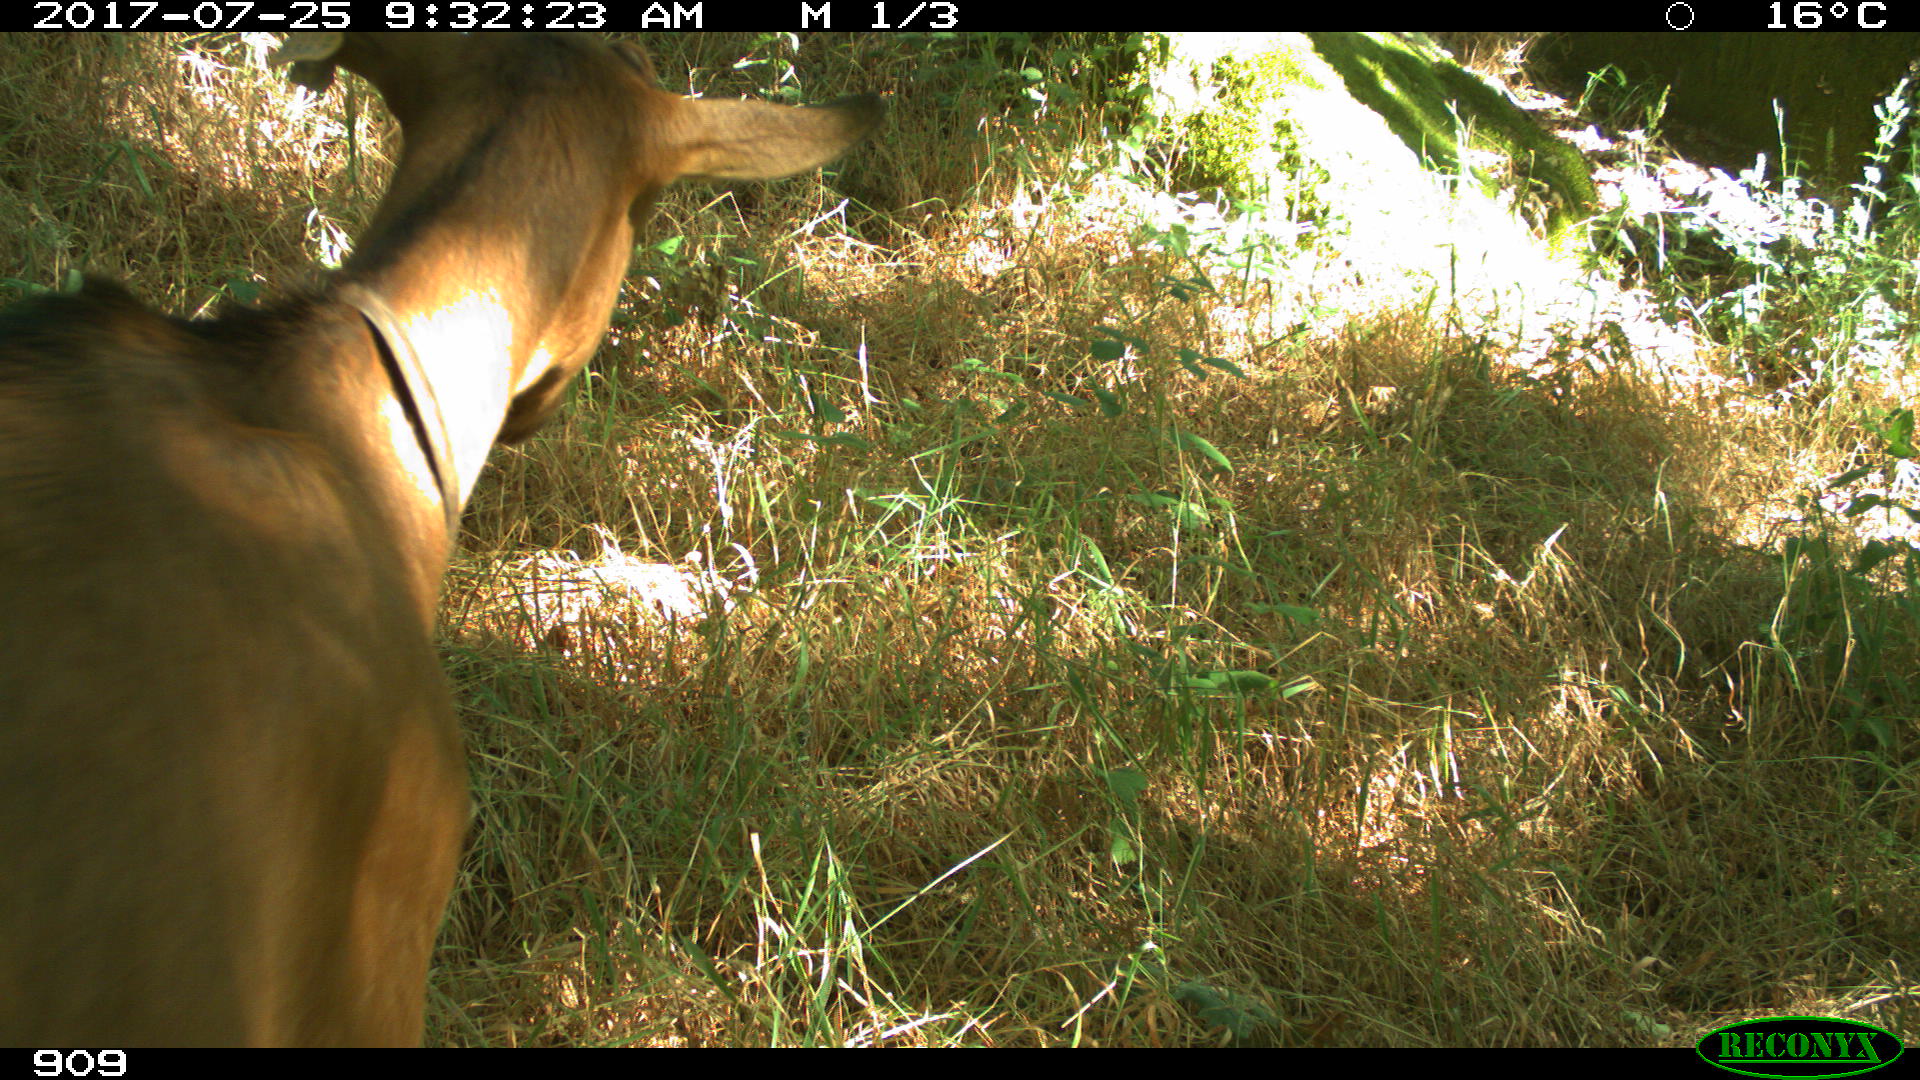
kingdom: Animalia
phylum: Chordata
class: Mammalia
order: Artiodactyla
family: Bovidae
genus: Capra
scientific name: Capra hircus
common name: Domestic goat
